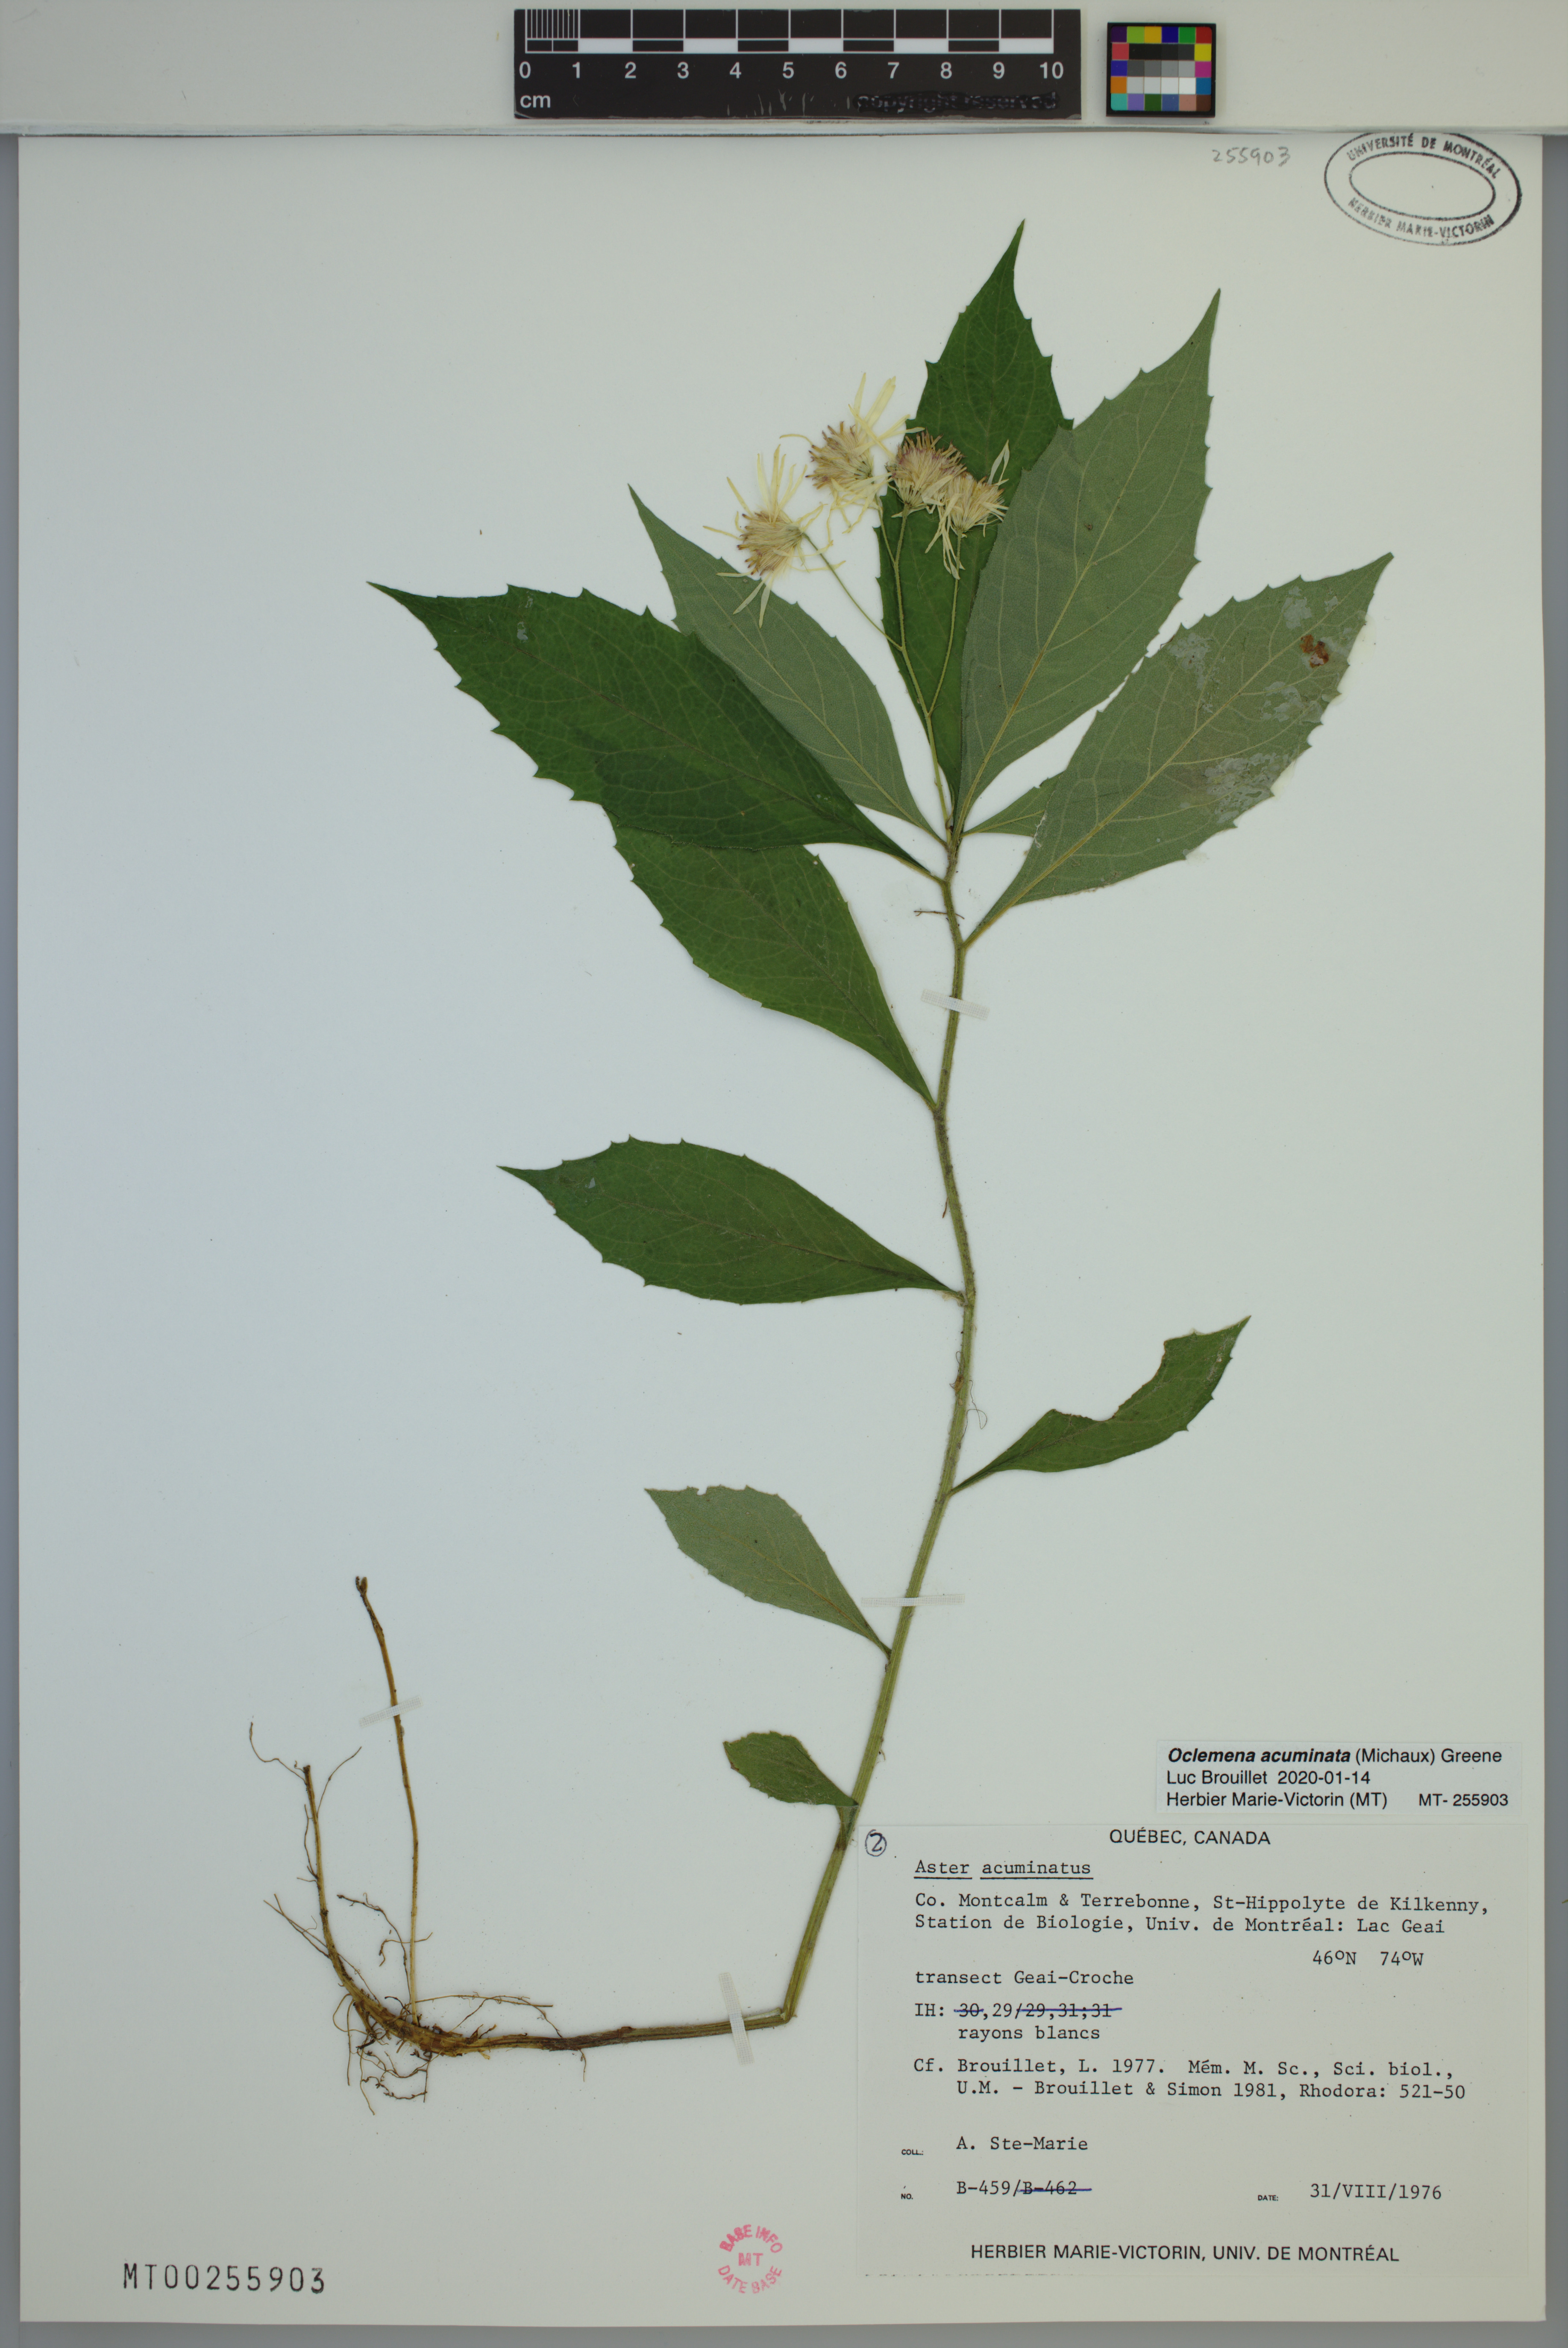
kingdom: Plantae
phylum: Tracheophyta
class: Magnoliopsida
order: Asterales
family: Asteraceae
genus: Oclemena
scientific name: Oclemena acuminata
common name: Mountain aster
